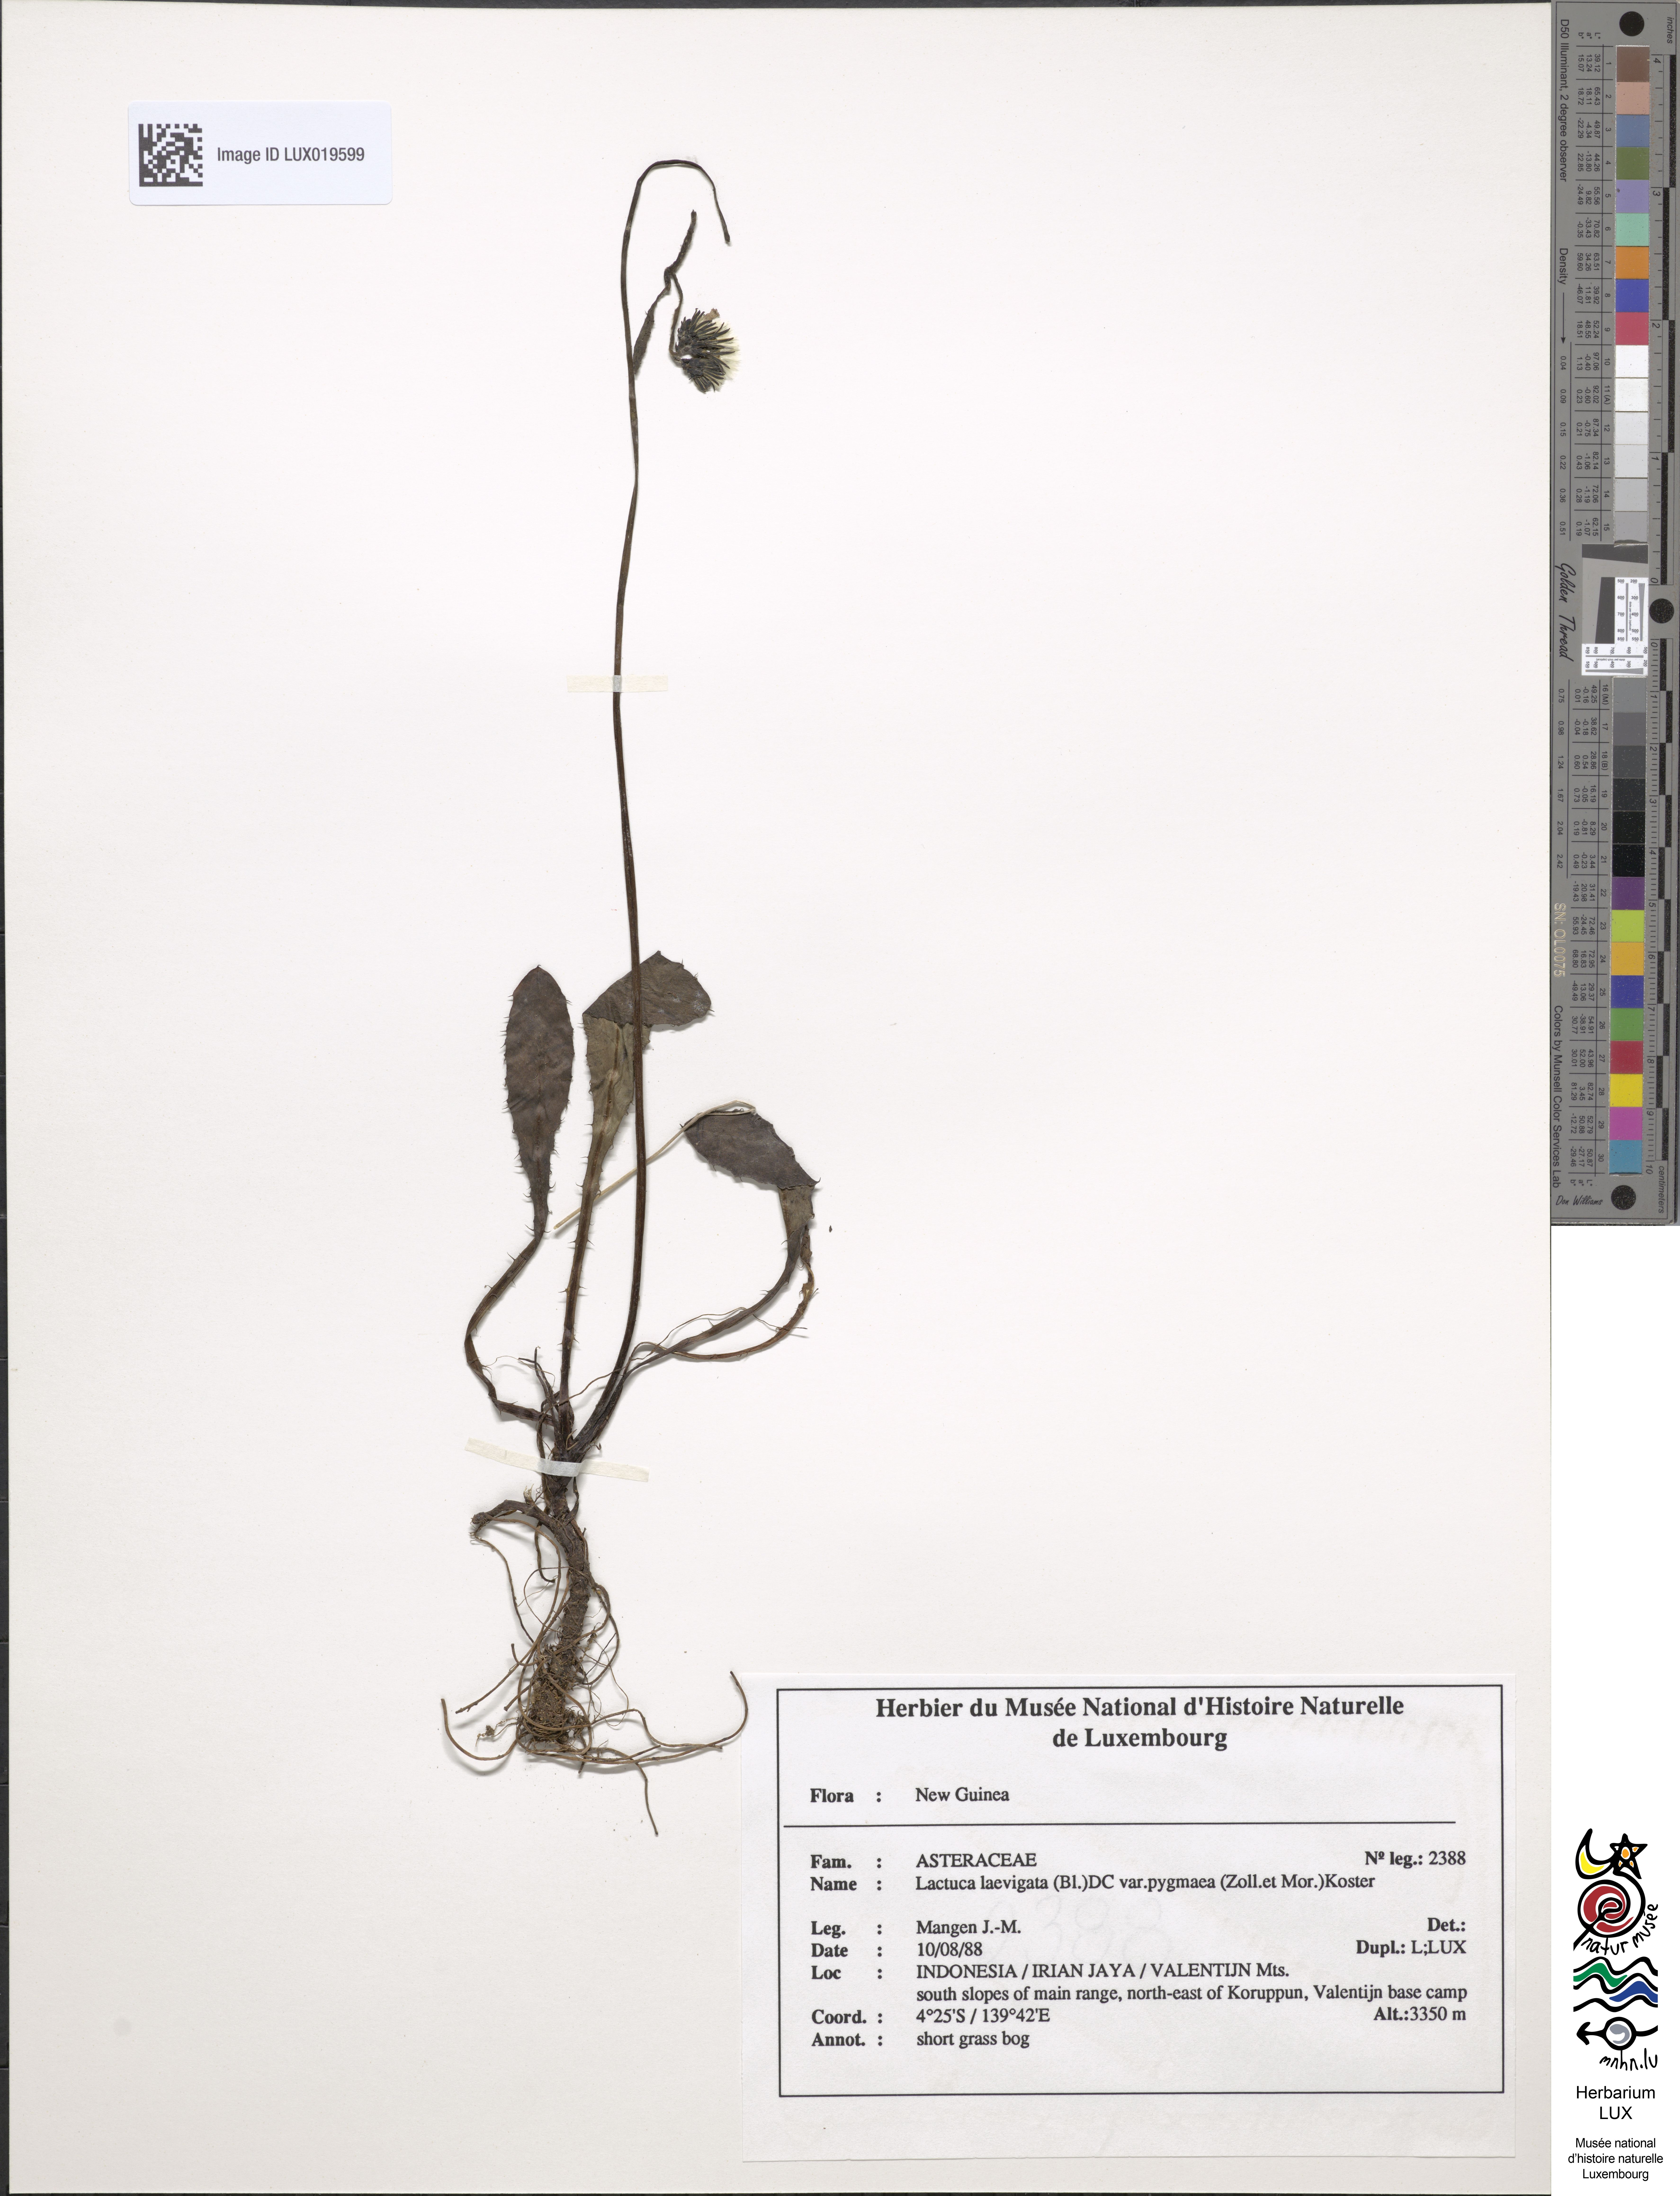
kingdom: Plantae
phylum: Tracheophyta
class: Magnoliopsida
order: Asterales
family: Asteraceae
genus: Ixeridium
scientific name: Ixeridium
